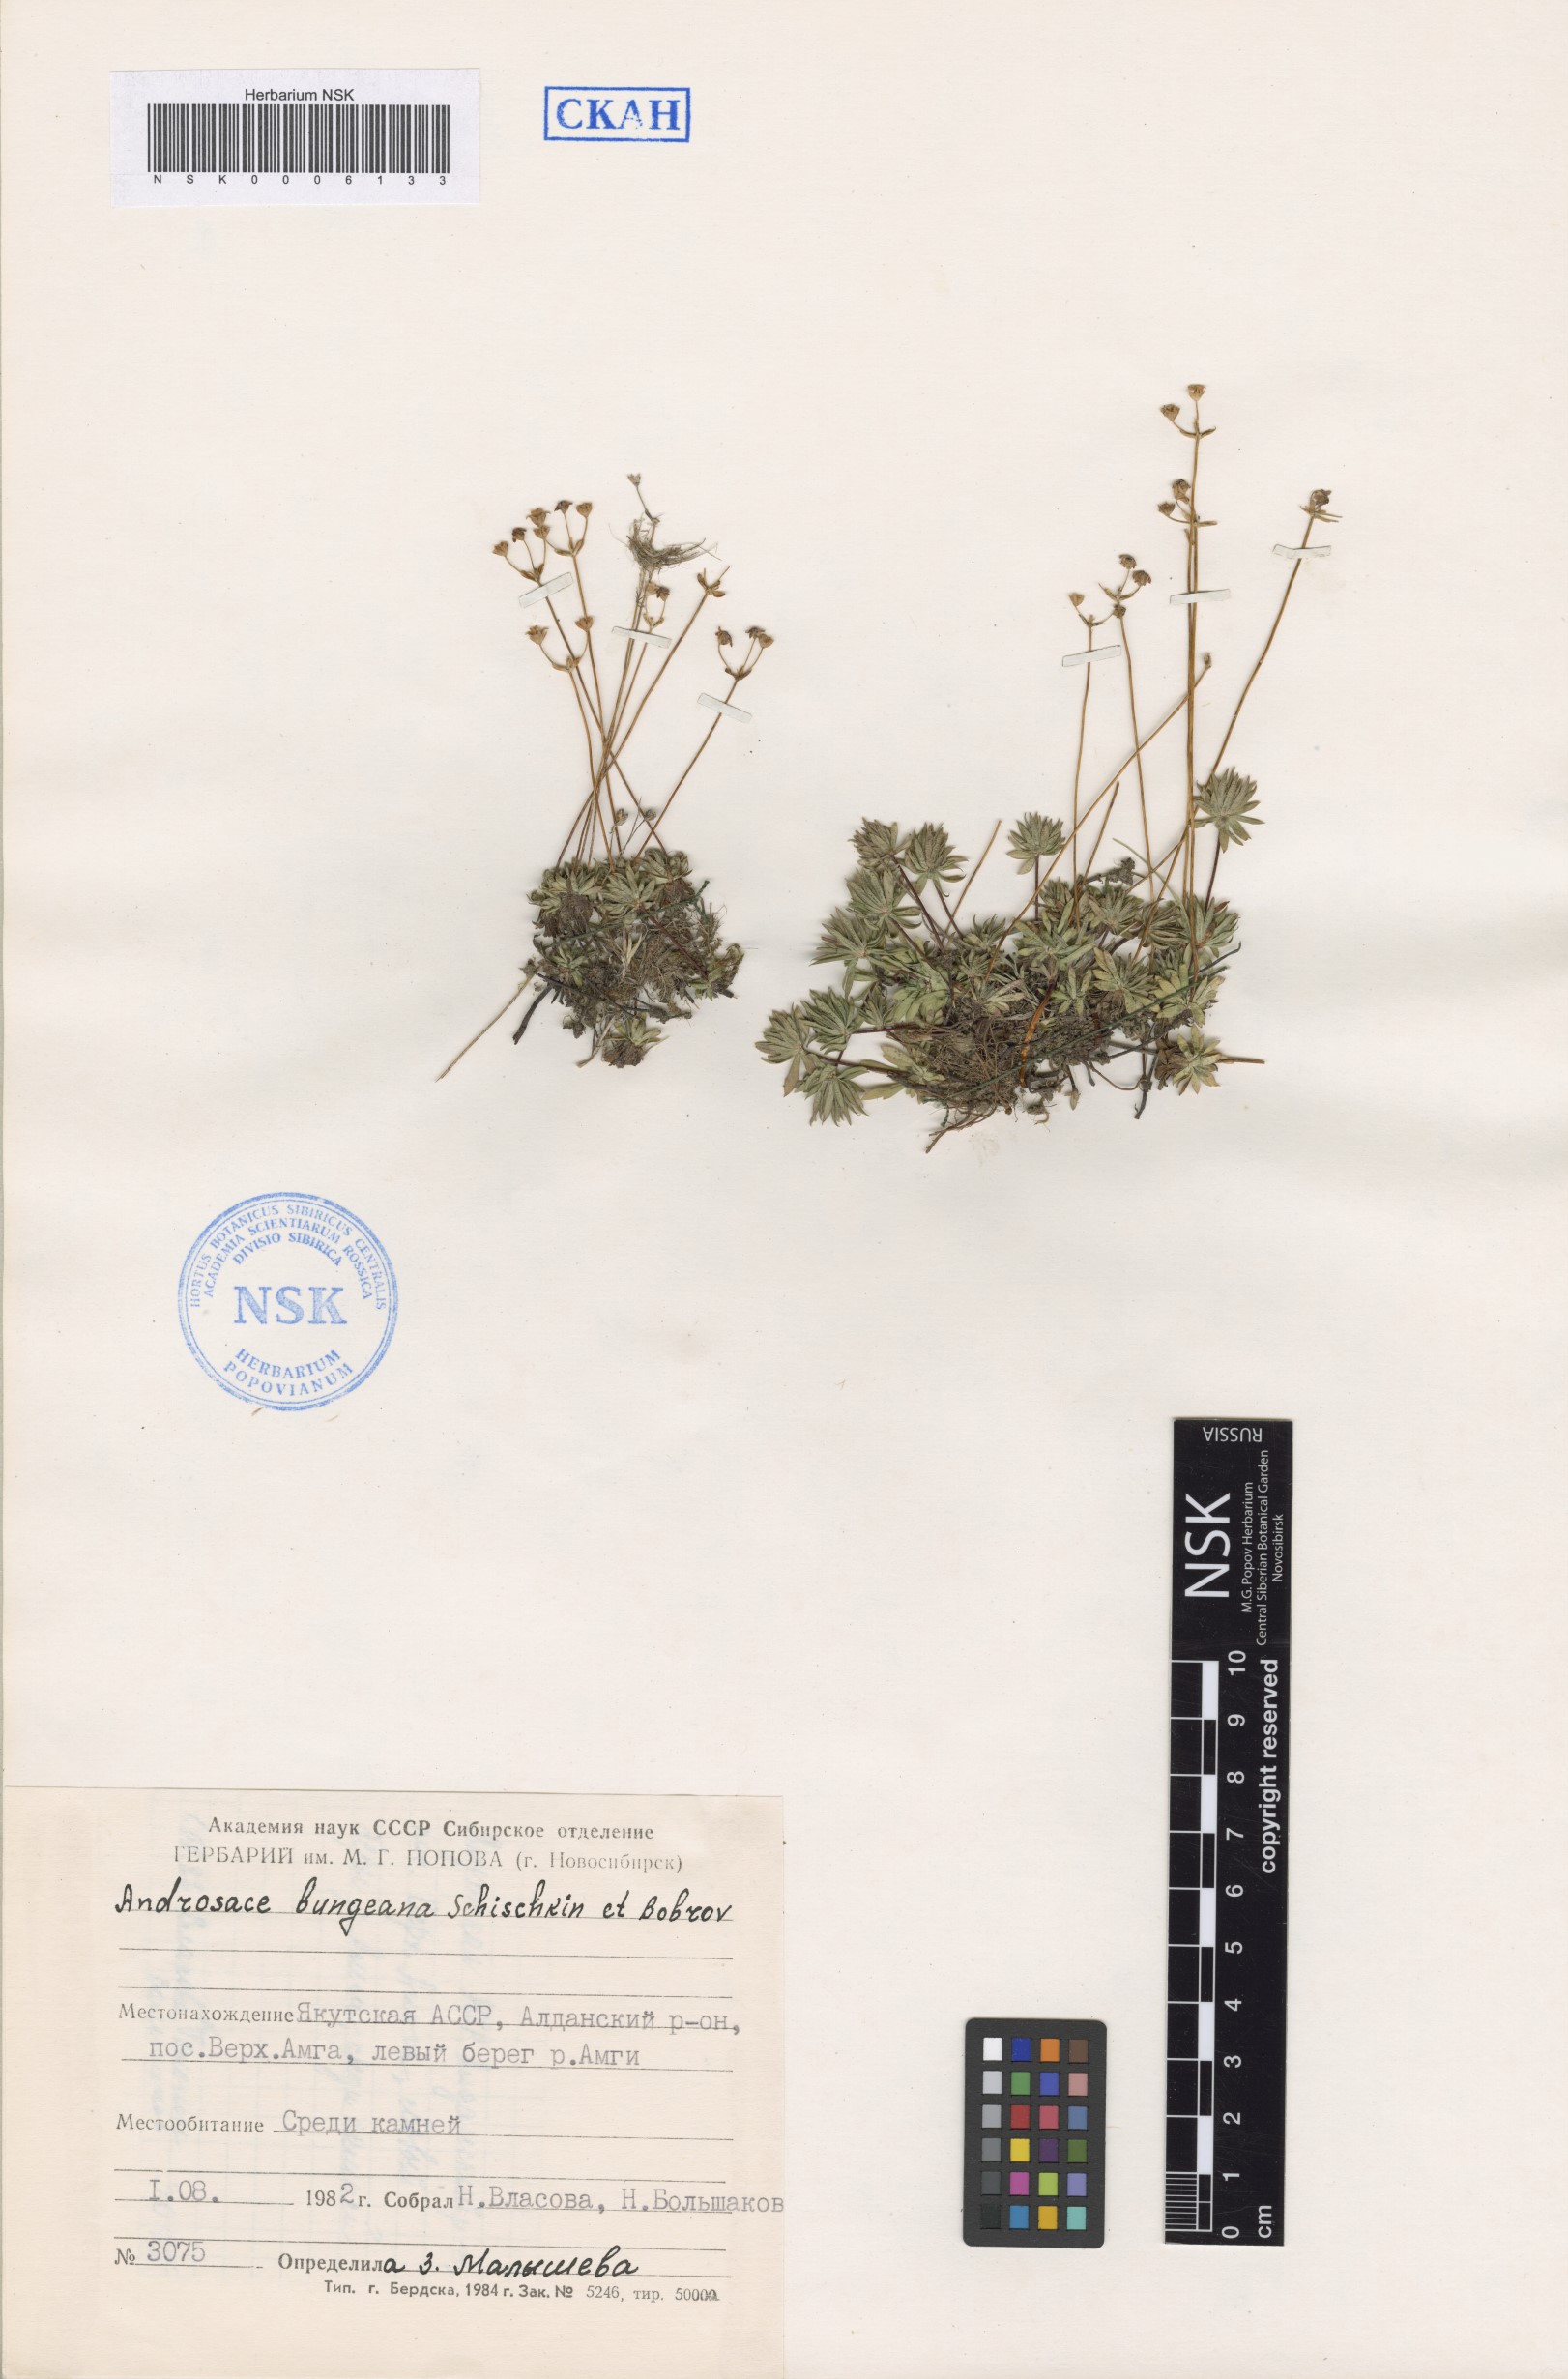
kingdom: Plantae
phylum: Tracheophyta
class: Magnoliopsida
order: Ericales
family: Primulaceae
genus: Androsace
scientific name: Androsace bungeana
